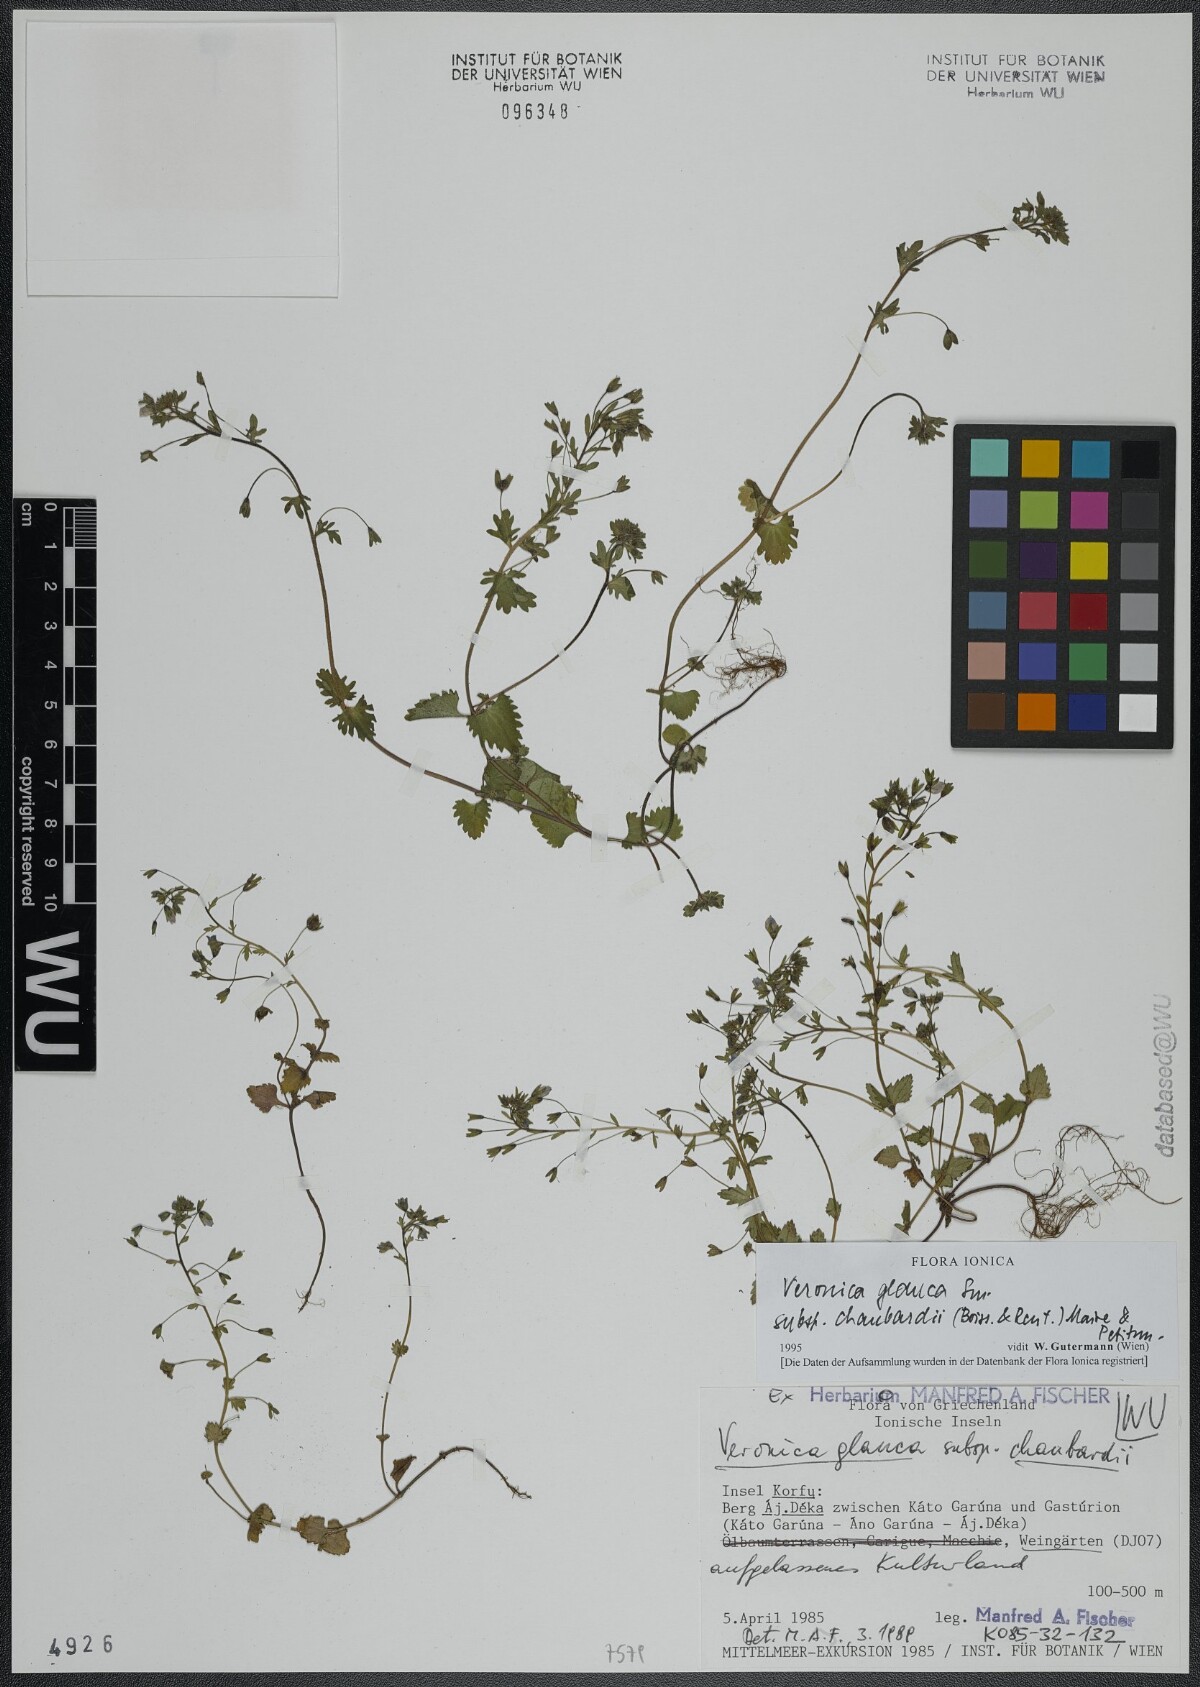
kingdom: Plantae
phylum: Tracheophyta
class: Magnoliopsida
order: Lamiales
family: Plantaginaceae
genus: Veronica
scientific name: Veronica glauca
